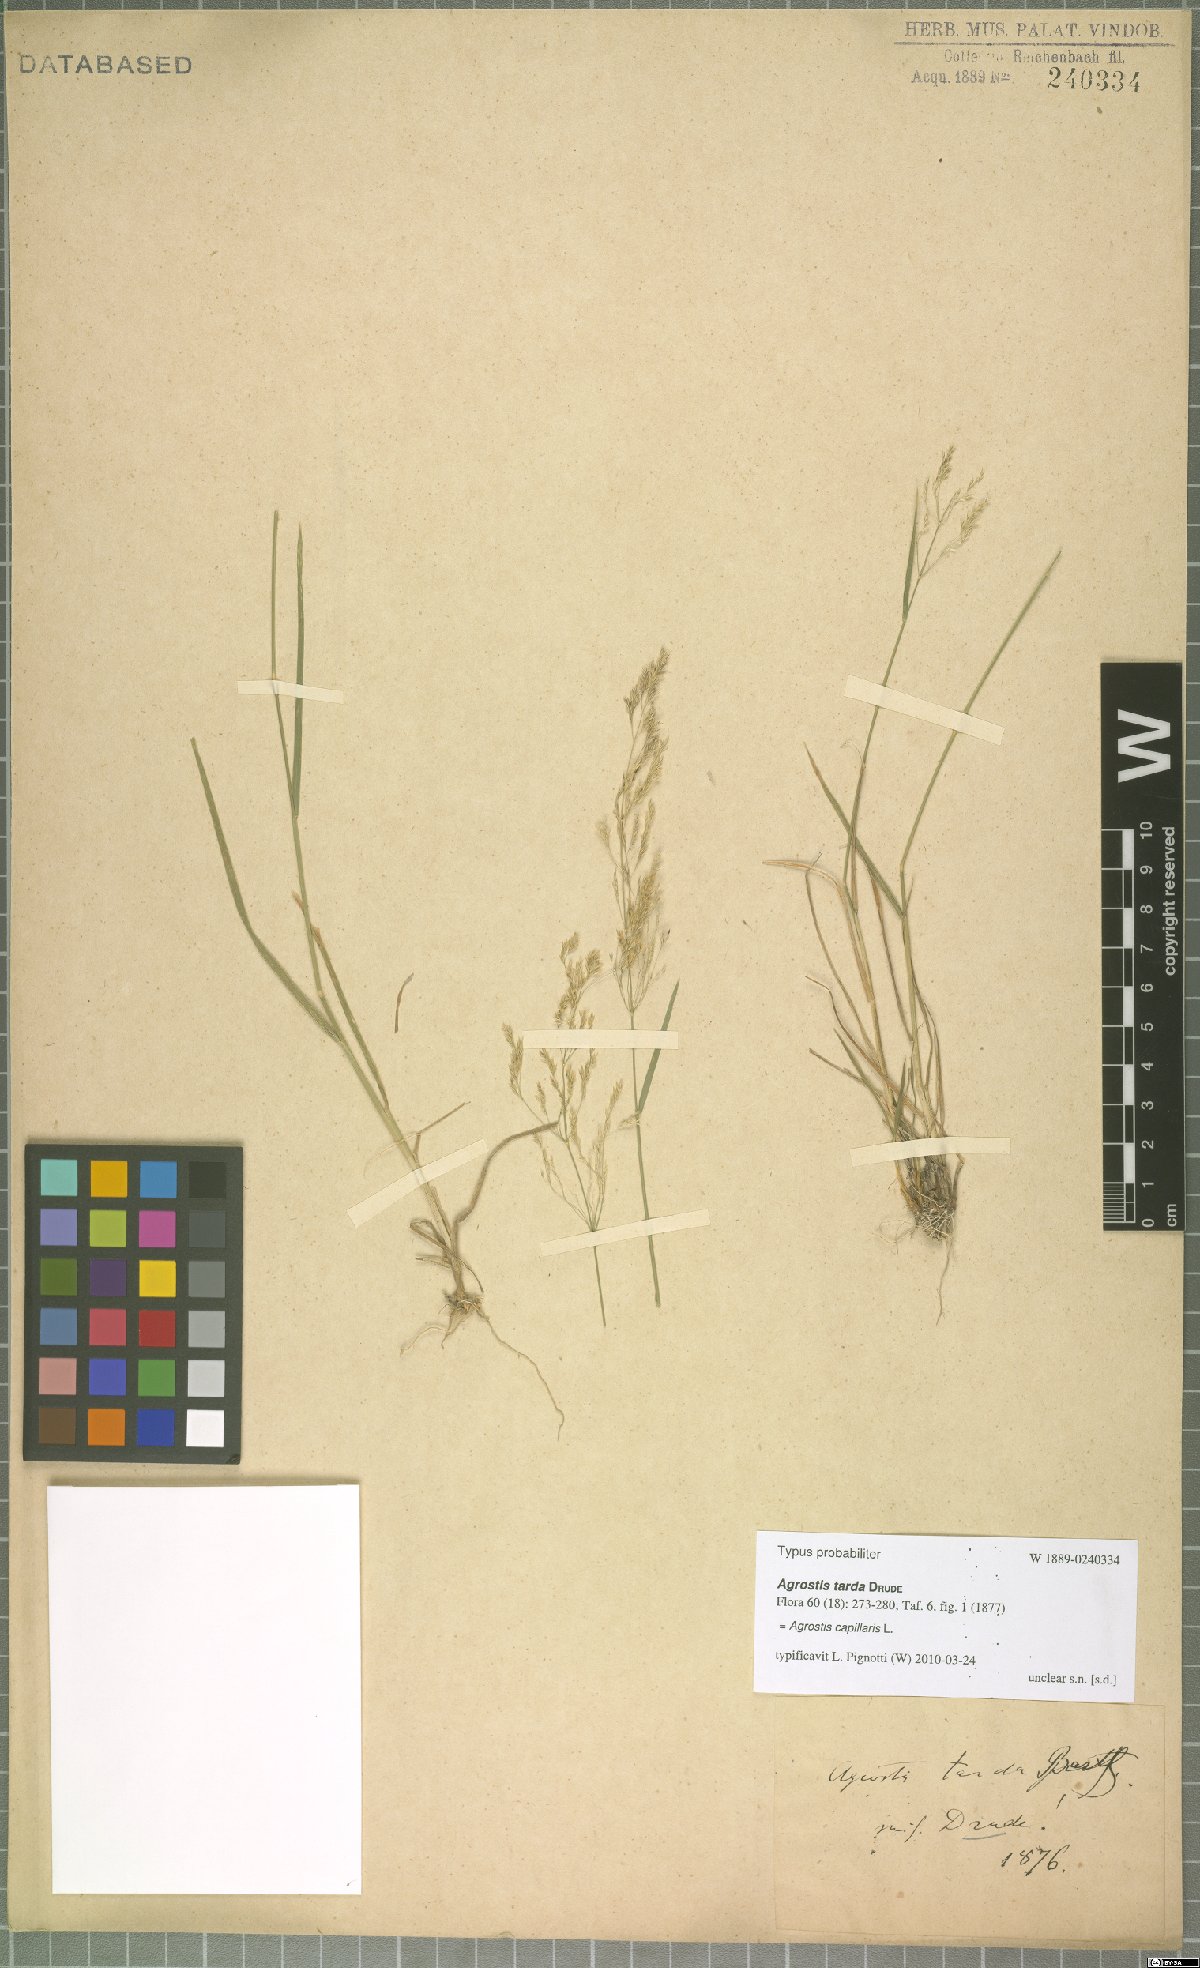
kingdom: Plantae
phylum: Tracheophyta
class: Liliopsida
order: Poales
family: Poaceae
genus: Agrostis
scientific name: Agrostis capillaris
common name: Colonial bentgrass
